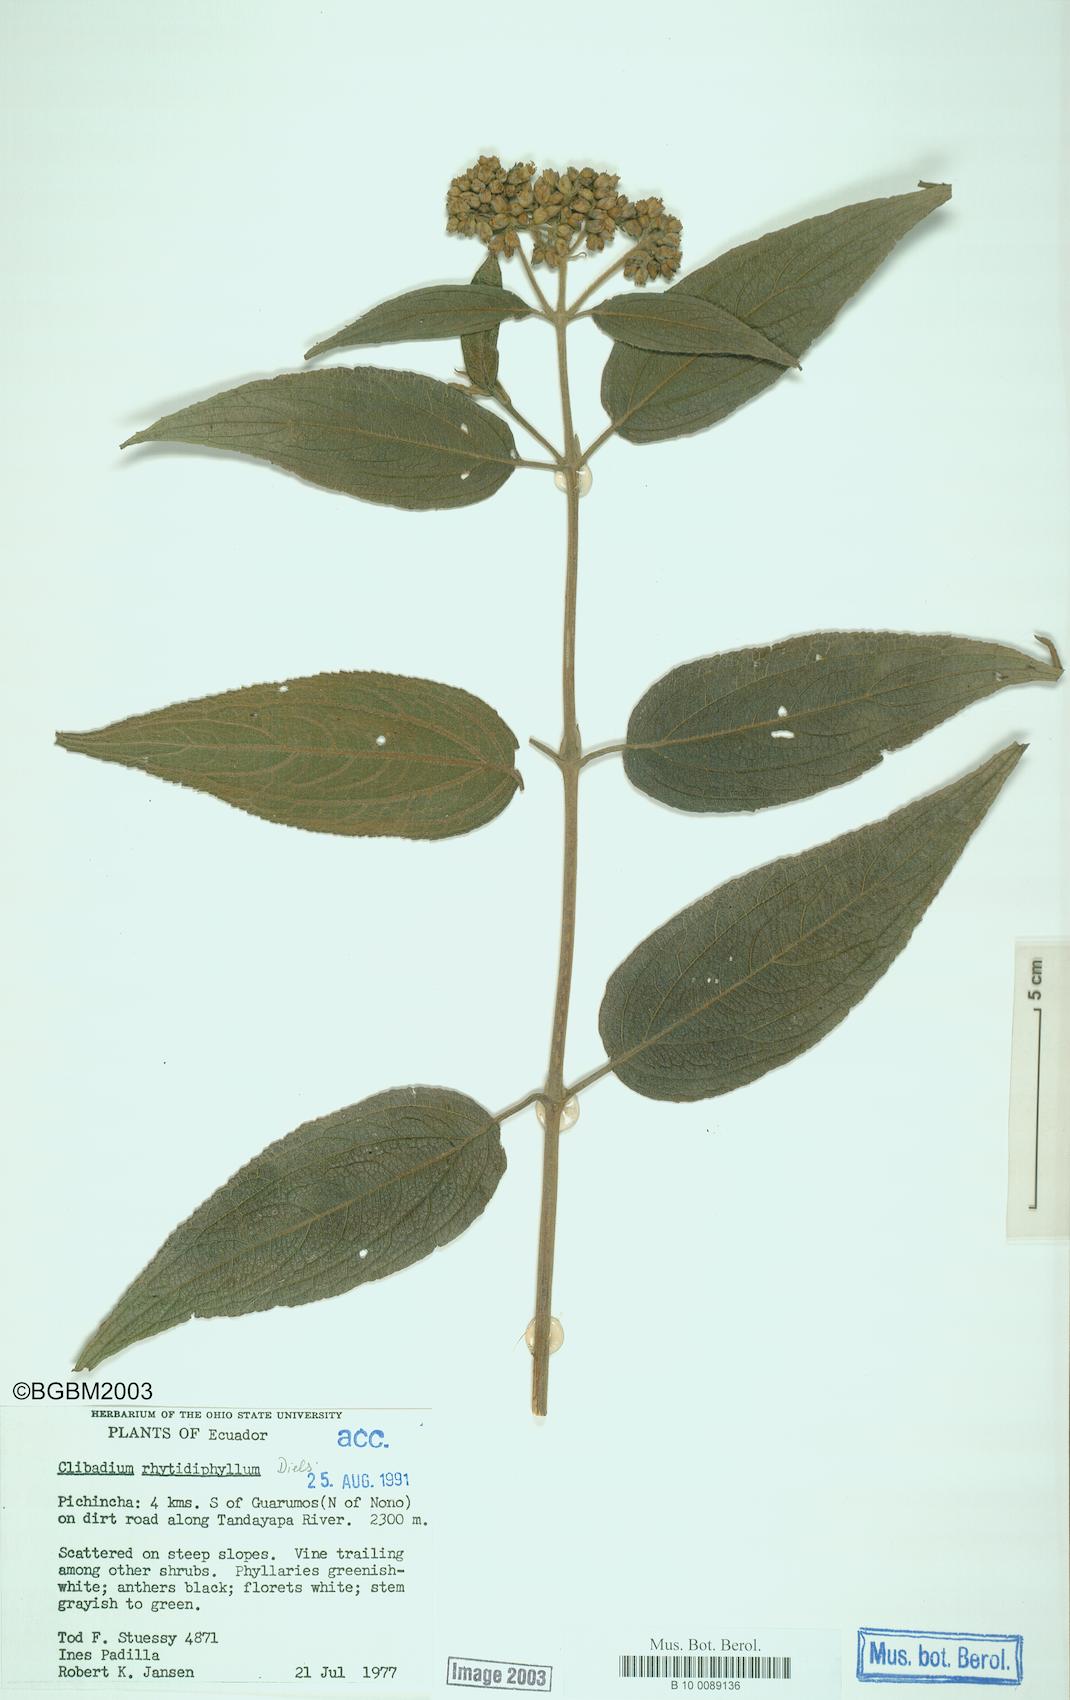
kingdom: Plantae
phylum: Tracheophyta
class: Magnoliopsida
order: Asterales
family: Asteraceae
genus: Clibadium
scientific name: Clibadium rhytidophyllum
